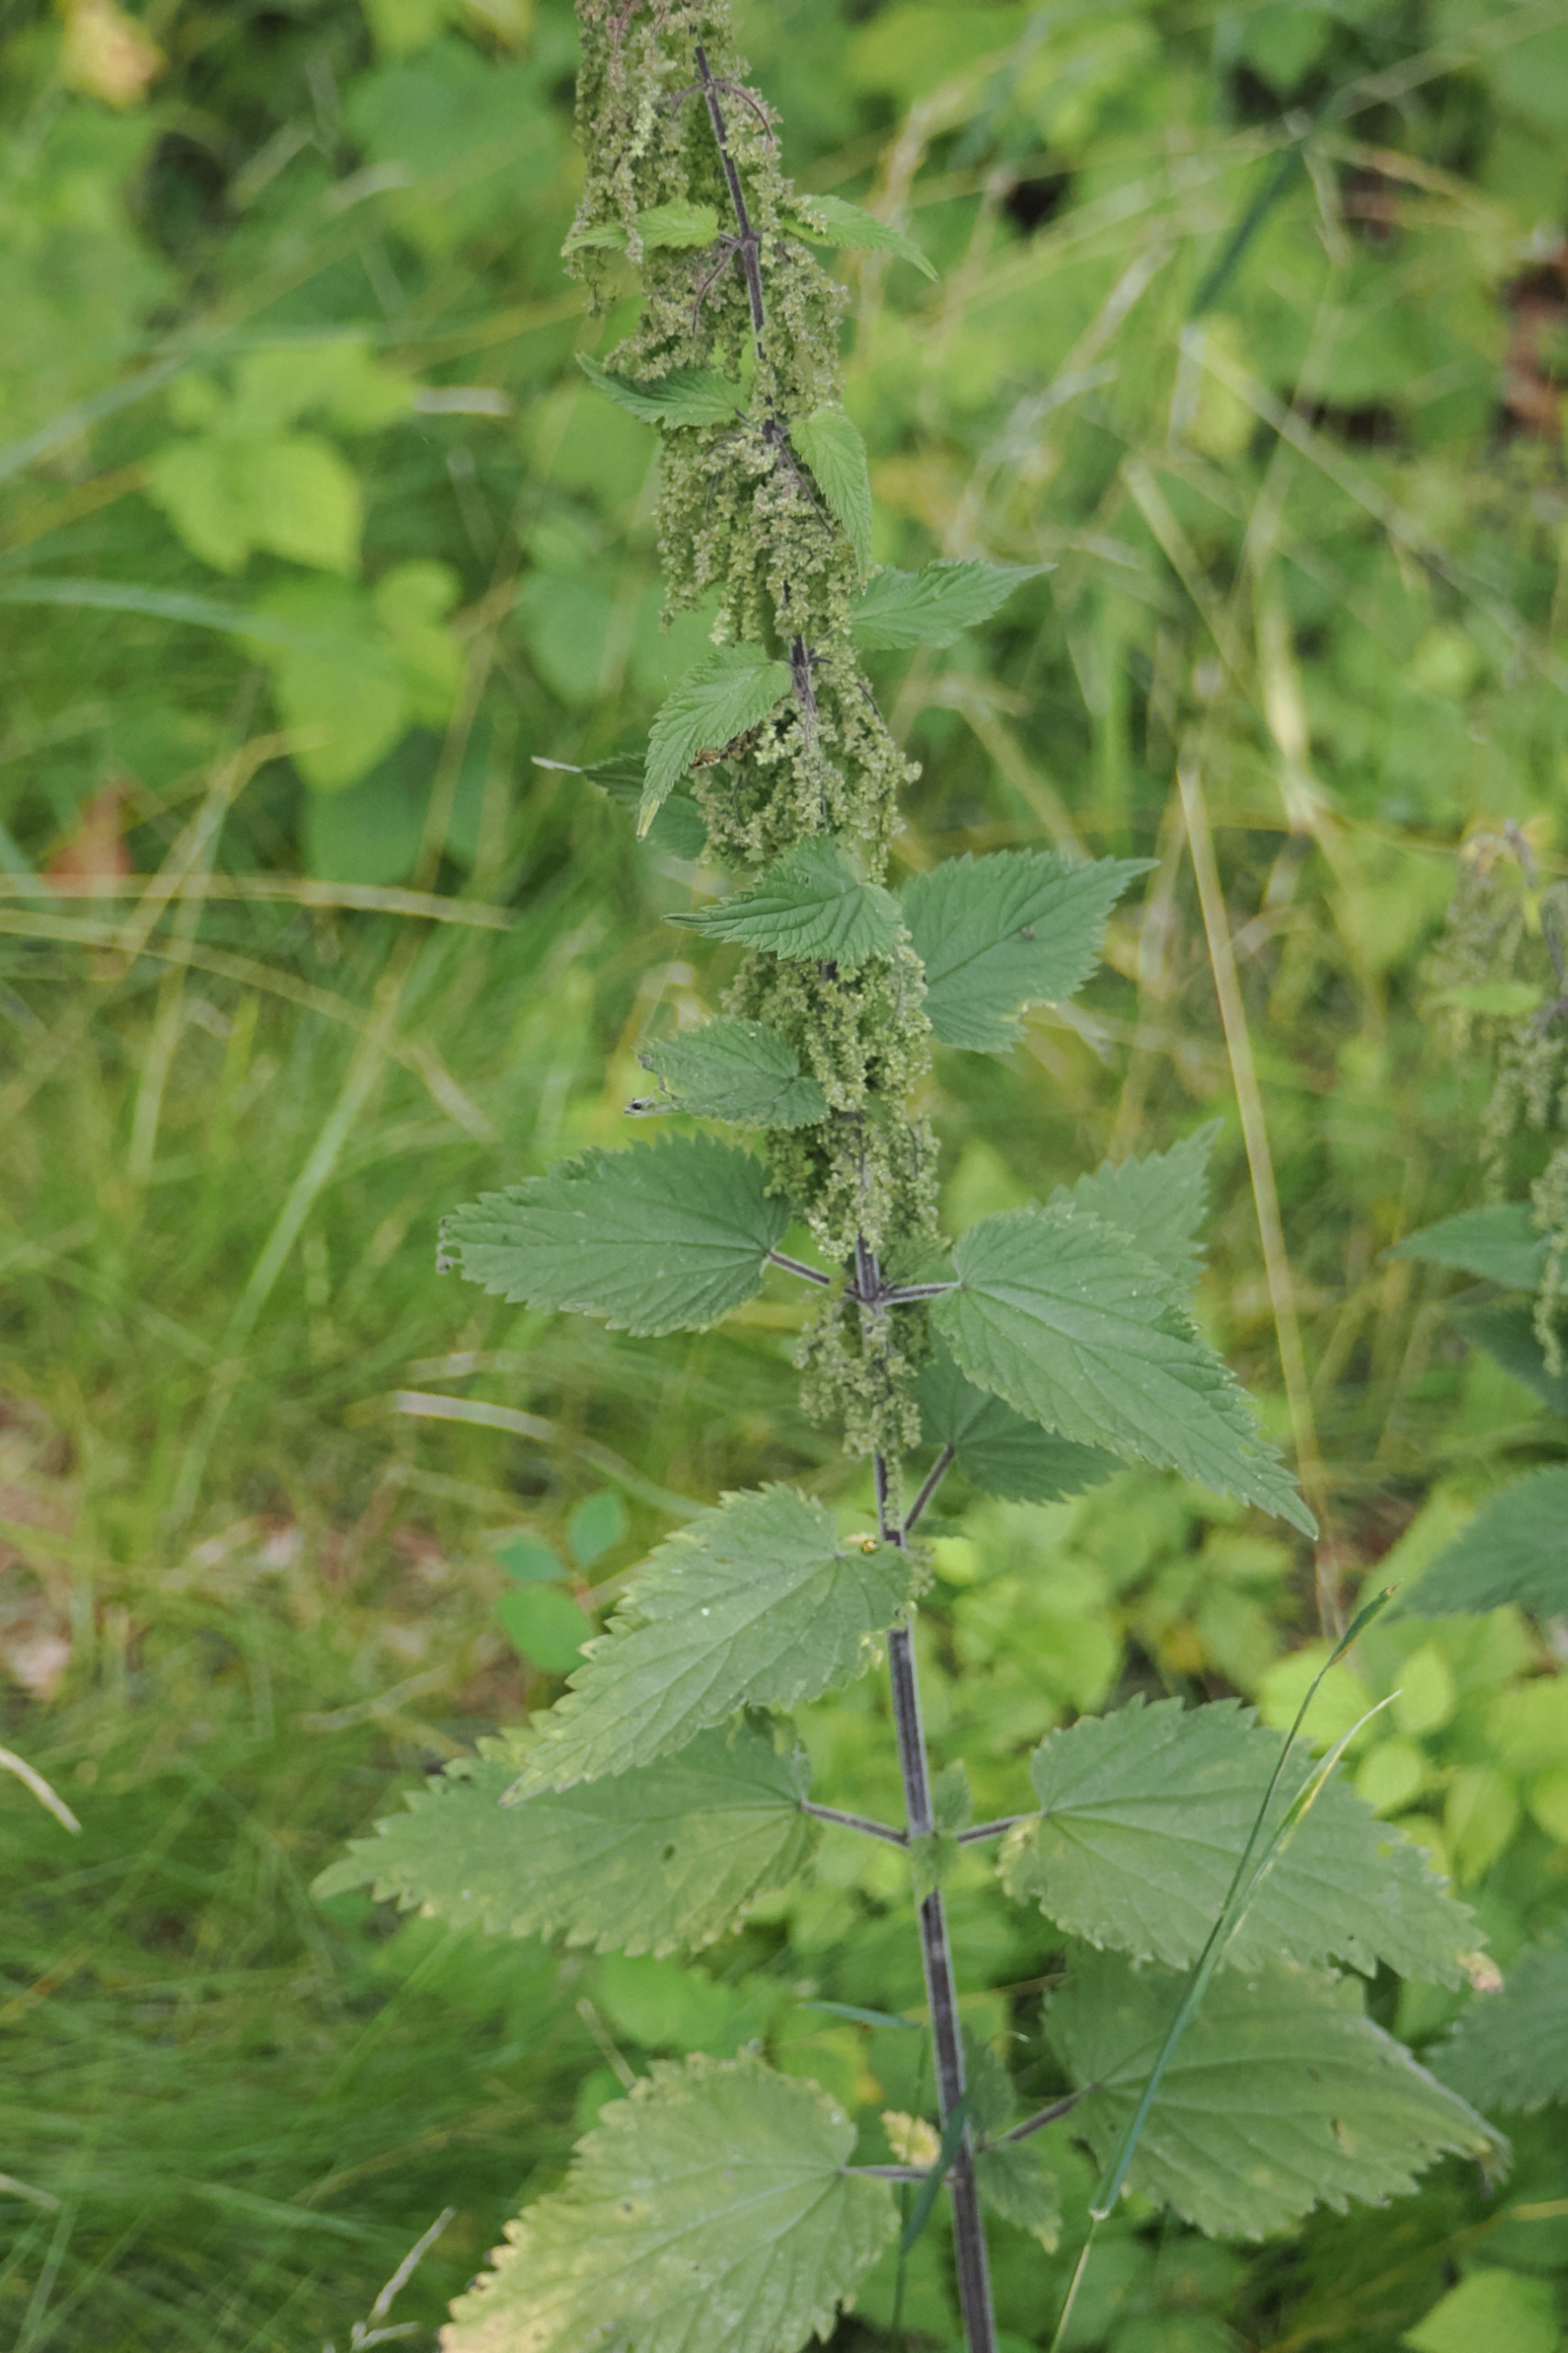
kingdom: Plantae
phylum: Tracheophyta
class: Magnoliopsida
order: Rosales
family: Urticaceae
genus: Urtica
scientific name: Urtica dioica
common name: Stor nælde
